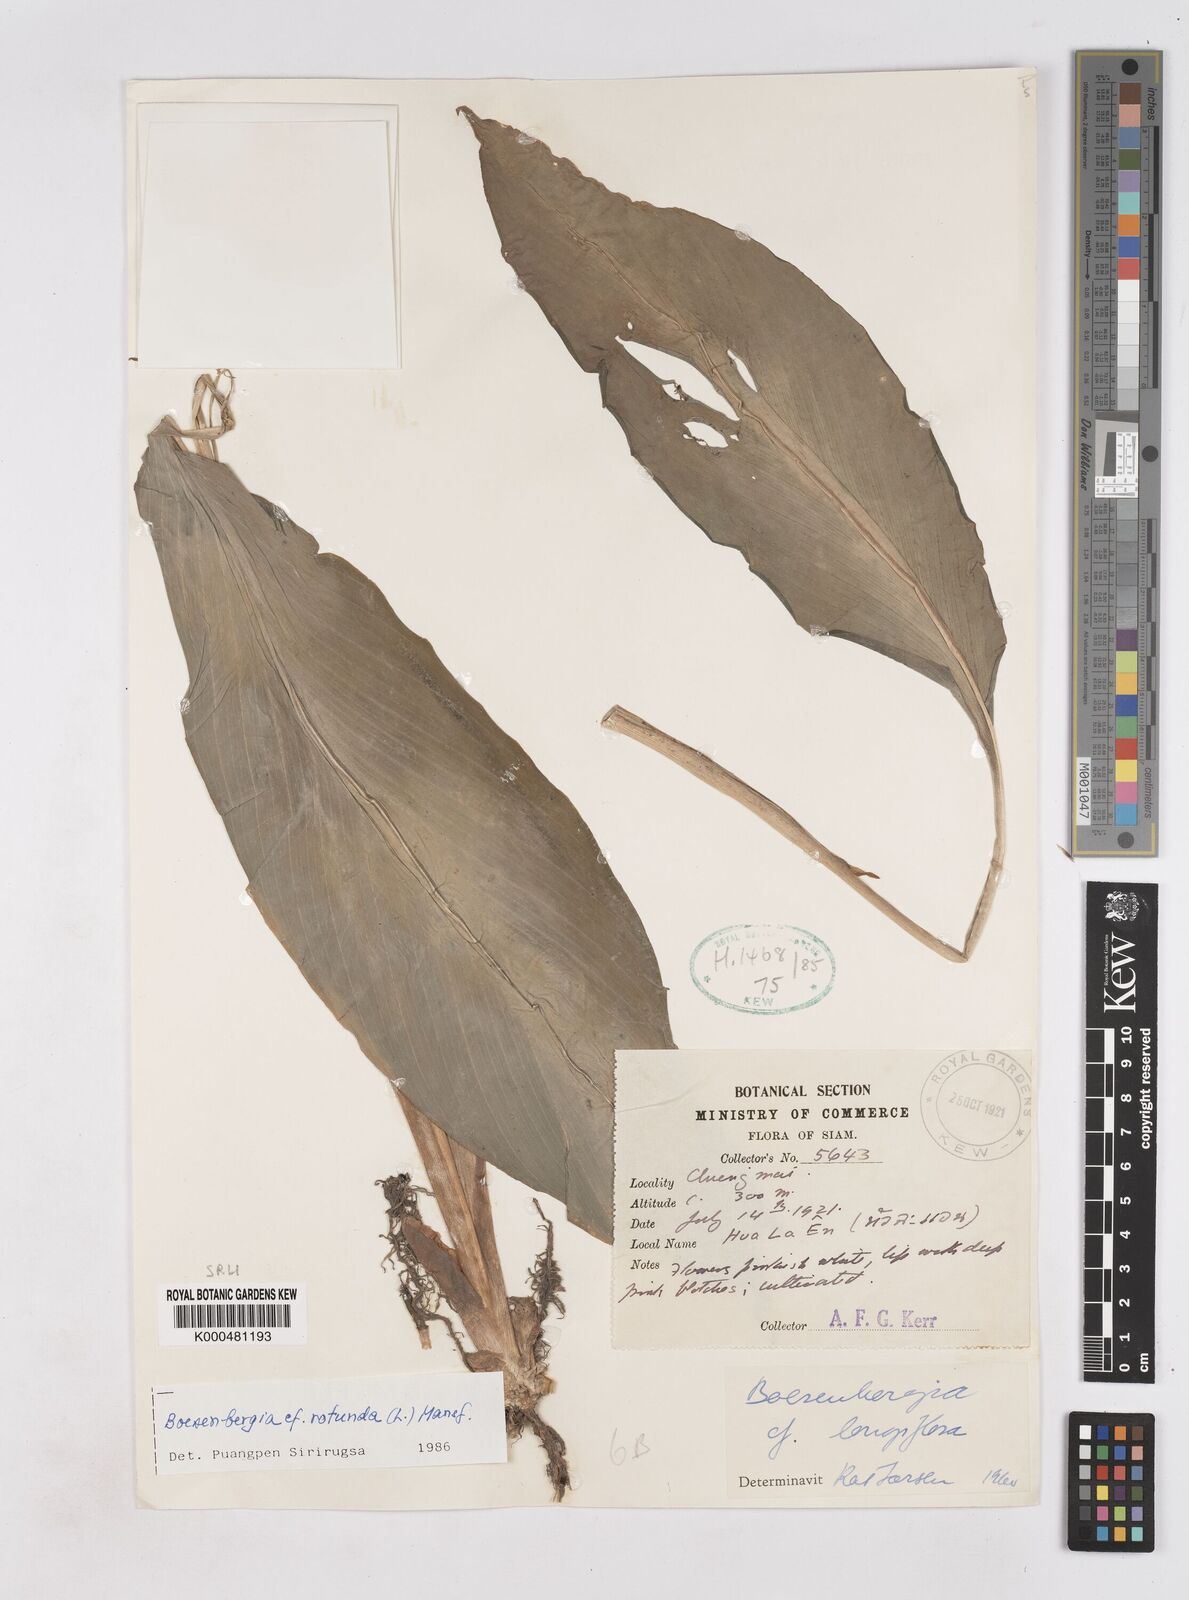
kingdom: Plantae
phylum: Tracheophyta
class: Liliopsida
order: Zingiberales
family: Zingiberaceae
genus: Boesenbergia
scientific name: Boesenbergia rotunda
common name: Chinese ginger
